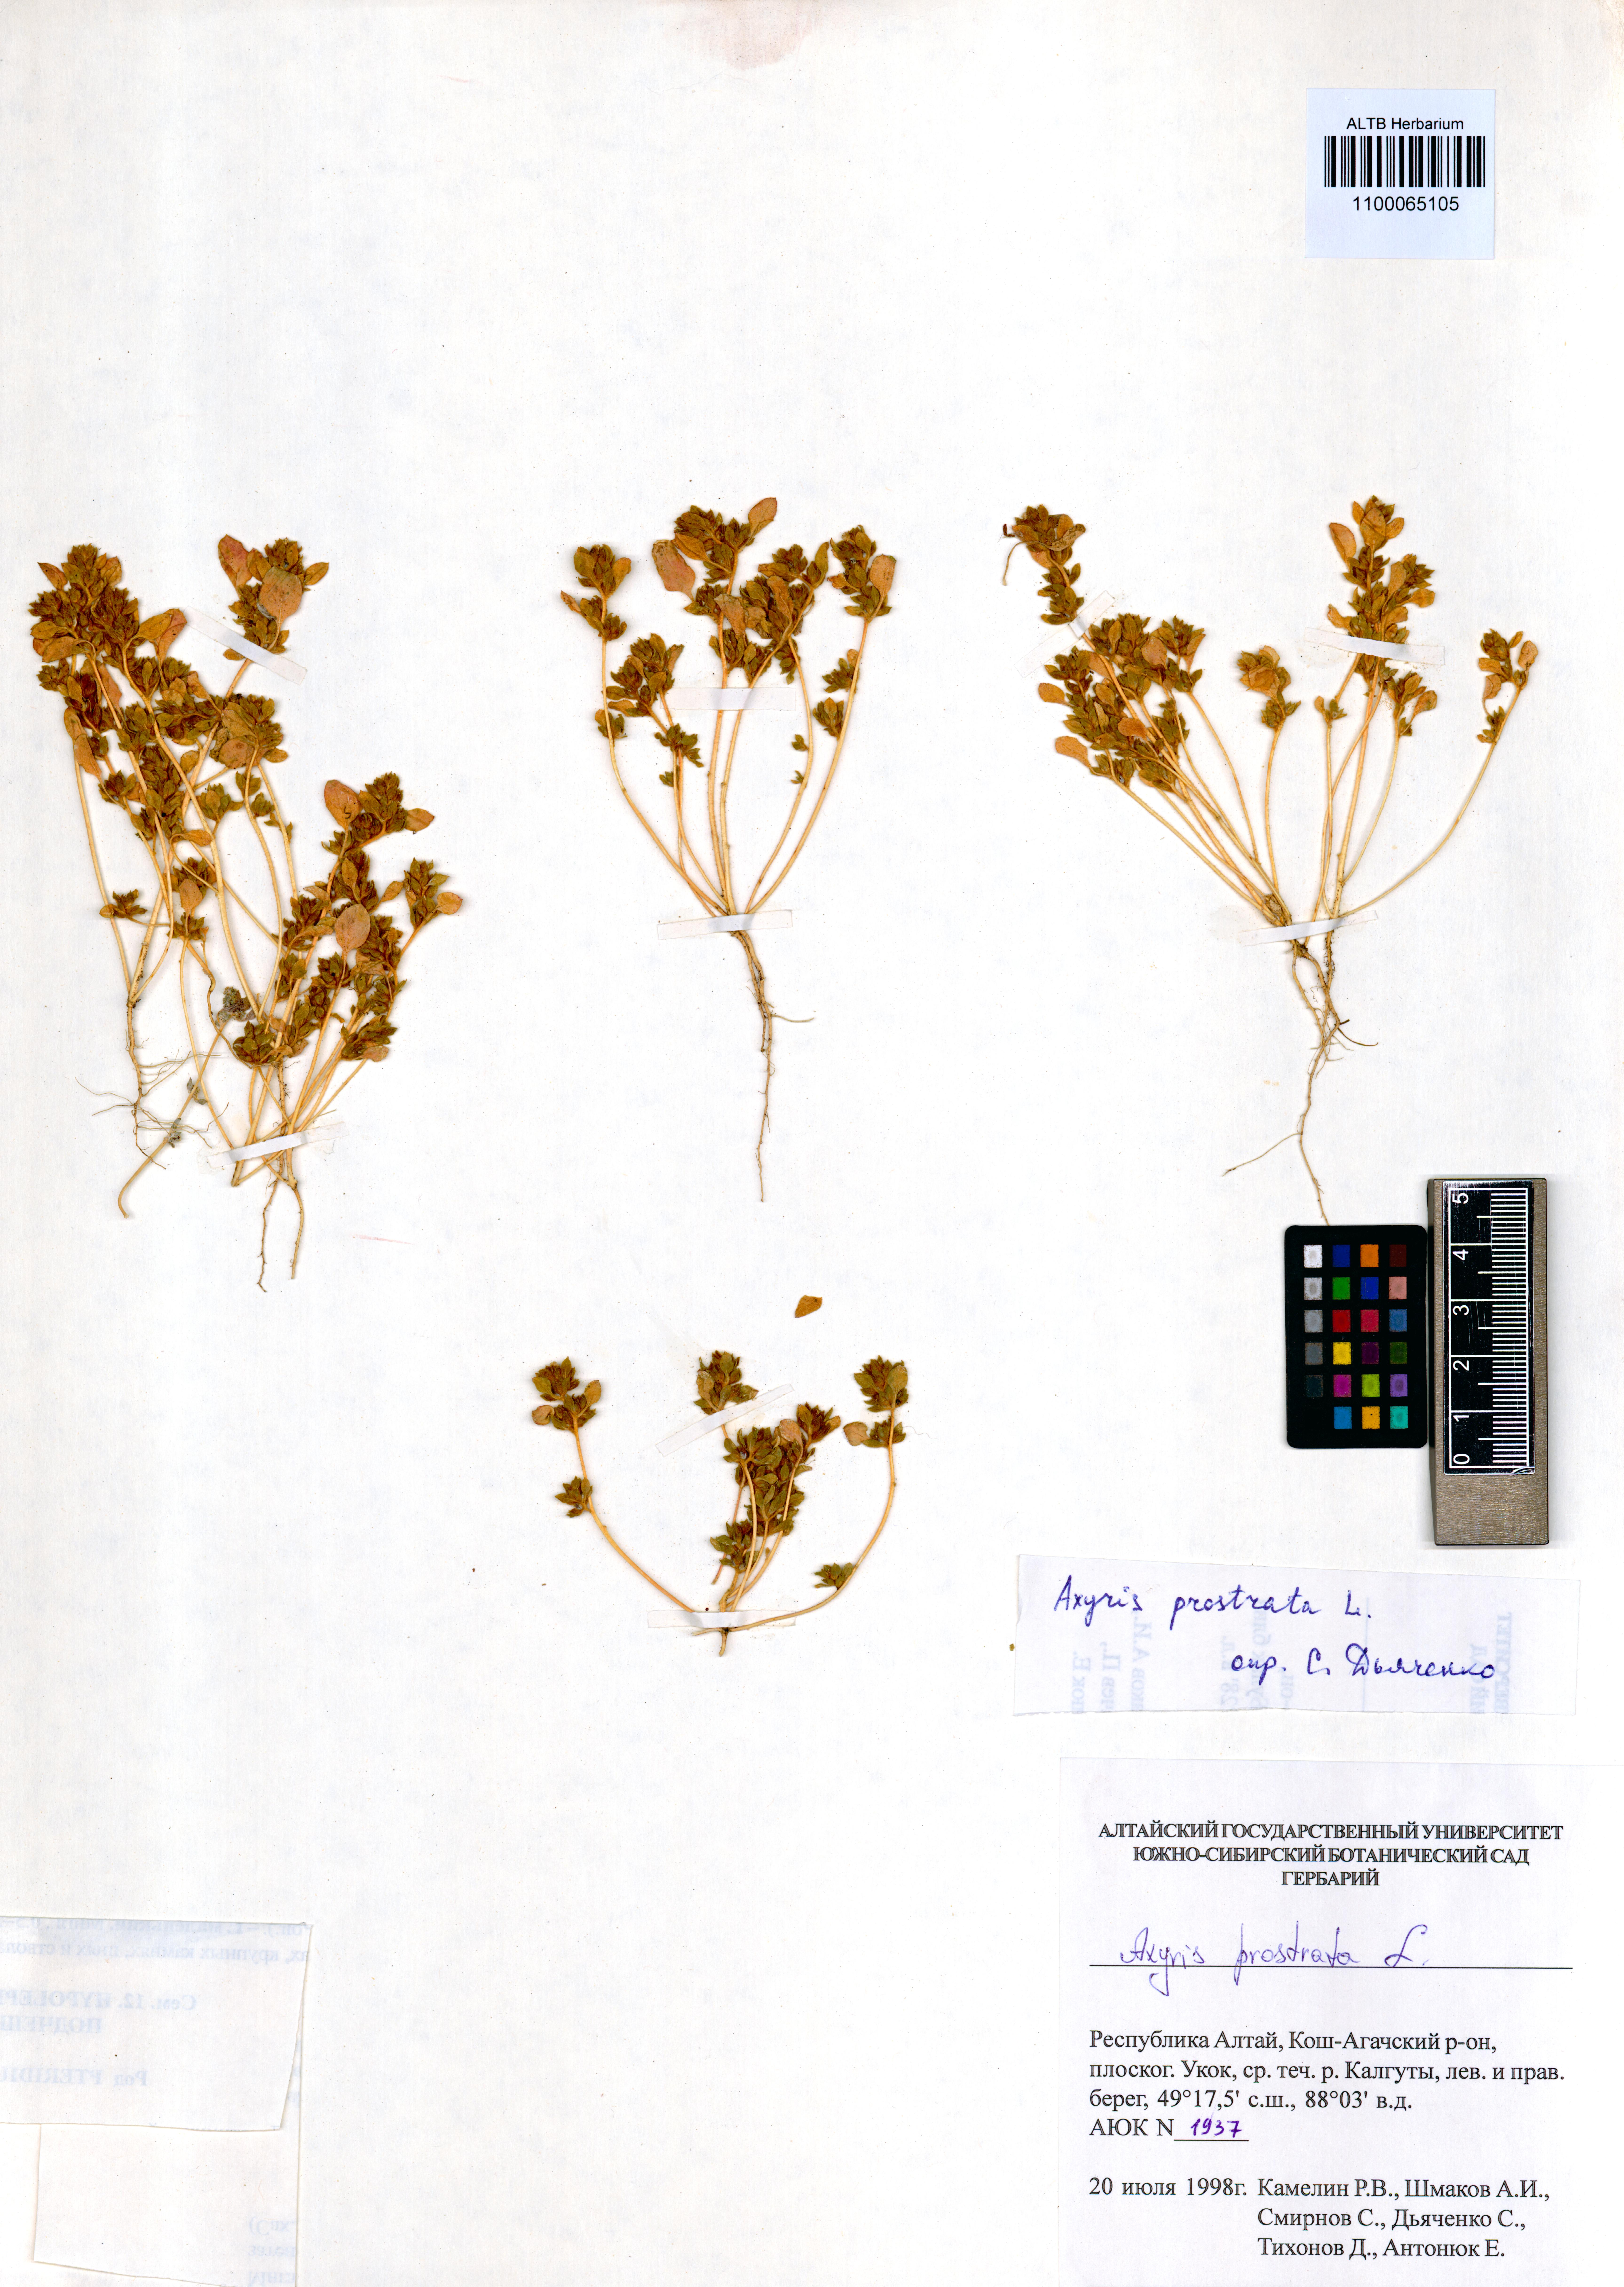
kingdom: Plantae
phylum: Tracheophyta
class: Magnoliopsida
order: Caryophyllales
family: Amaranthaceae
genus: Axyris
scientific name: Axyris prostrata
